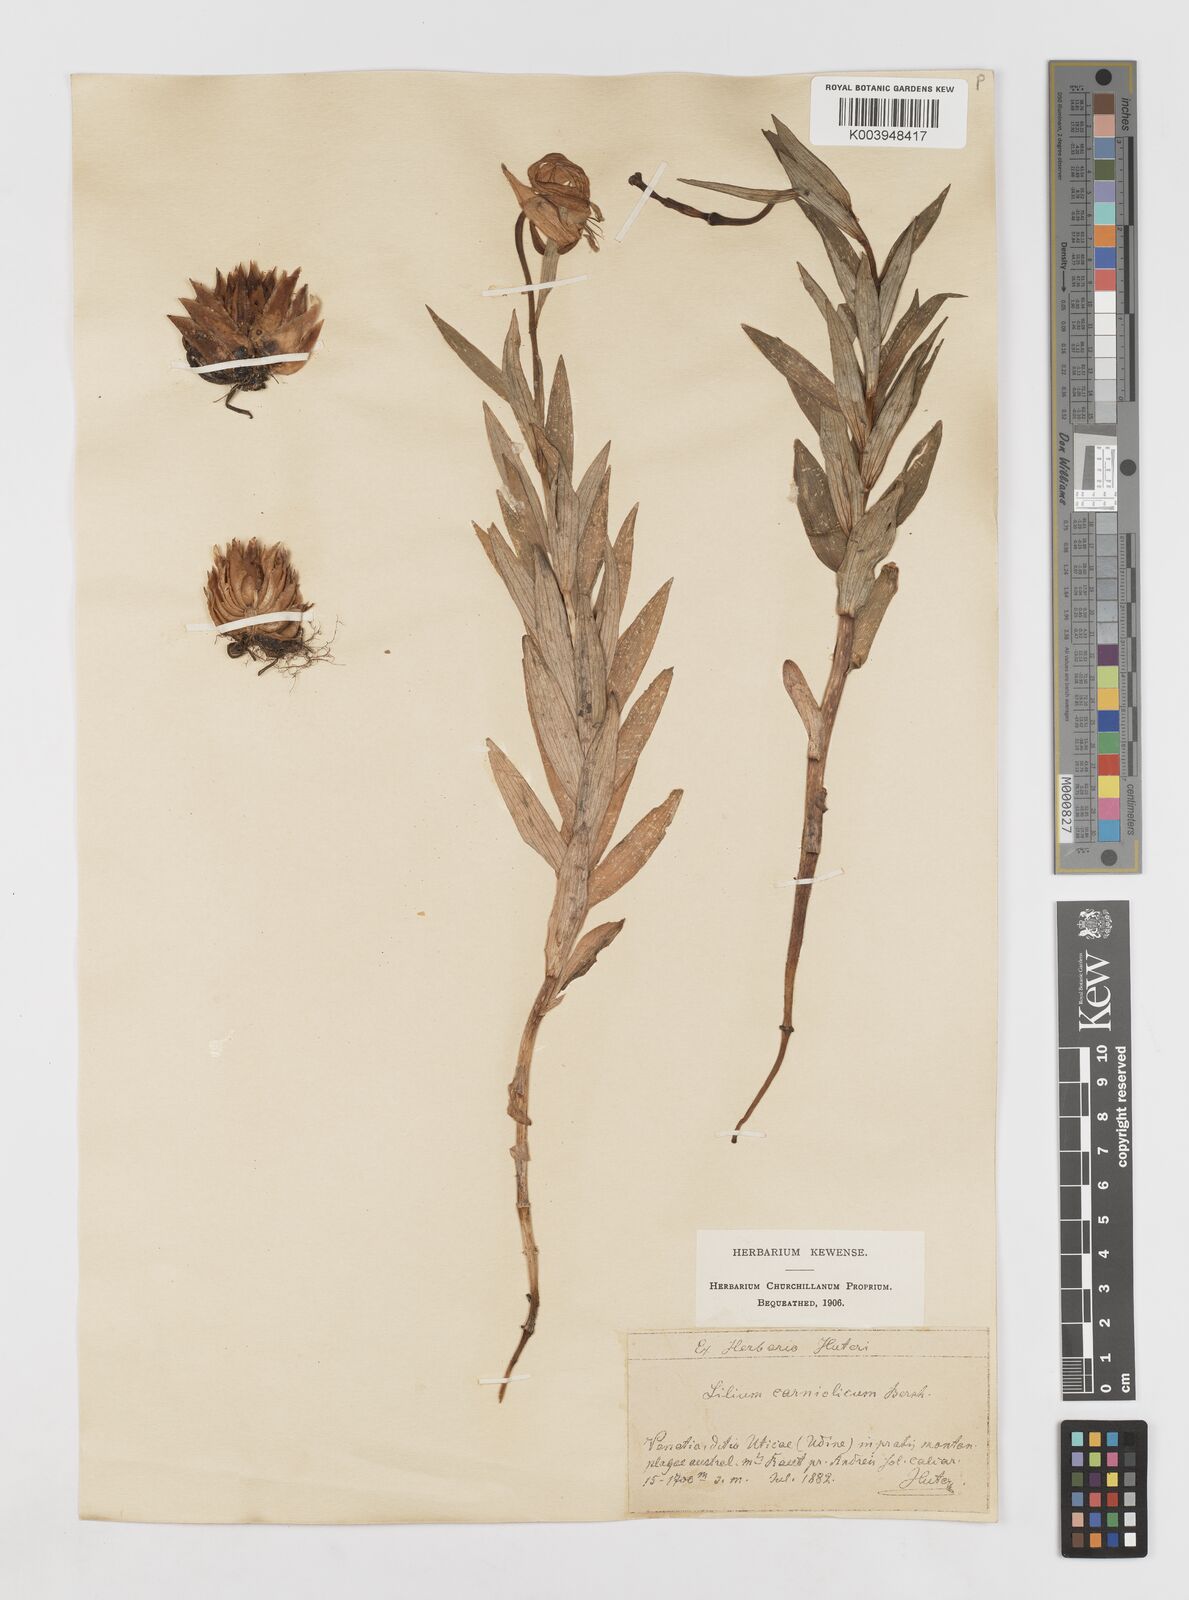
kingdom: Plantae
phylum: Tracheophyta
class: Liliopsida
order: Liliales
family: Liliaceae
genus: Lilium
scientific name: Lilium carniolicum
